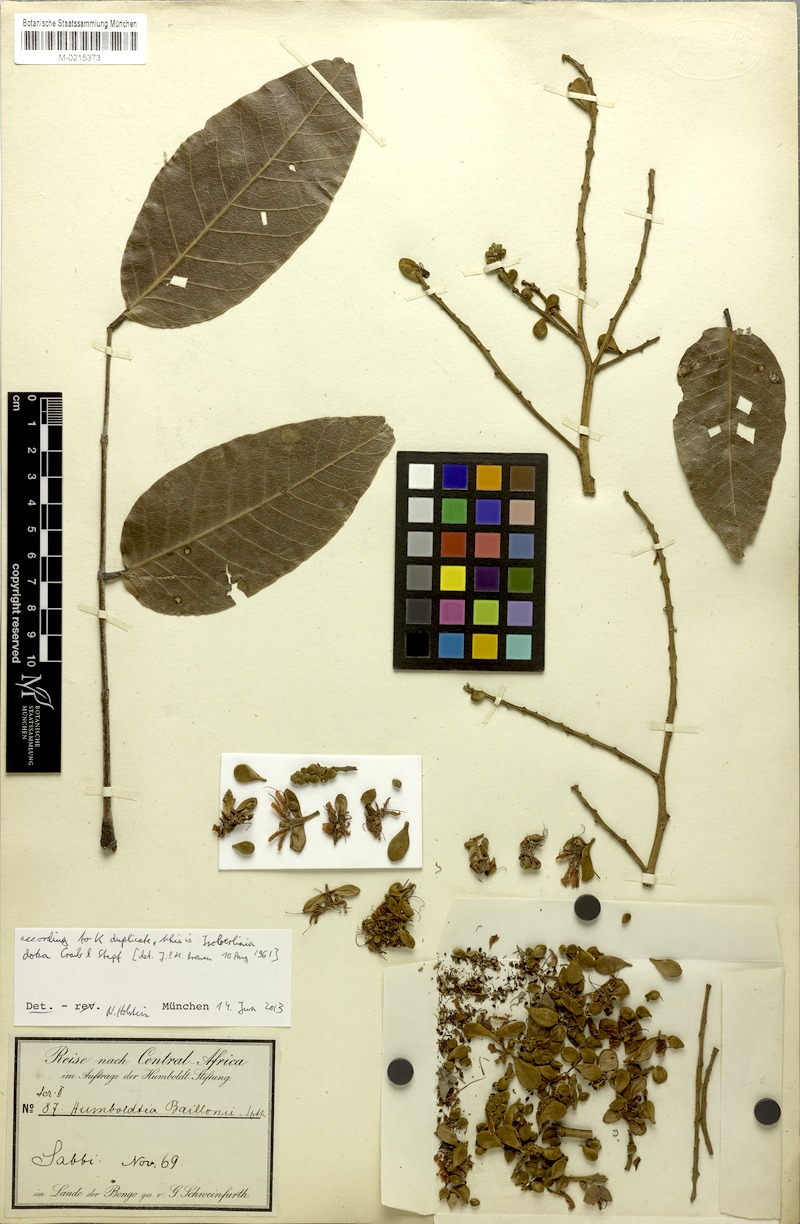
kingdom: Plantae
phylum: Tracheophyta
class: Magnoliopsida
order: Fabales
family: Fabaceae
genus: Isoberlinia
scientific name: Isoberlinia doka
